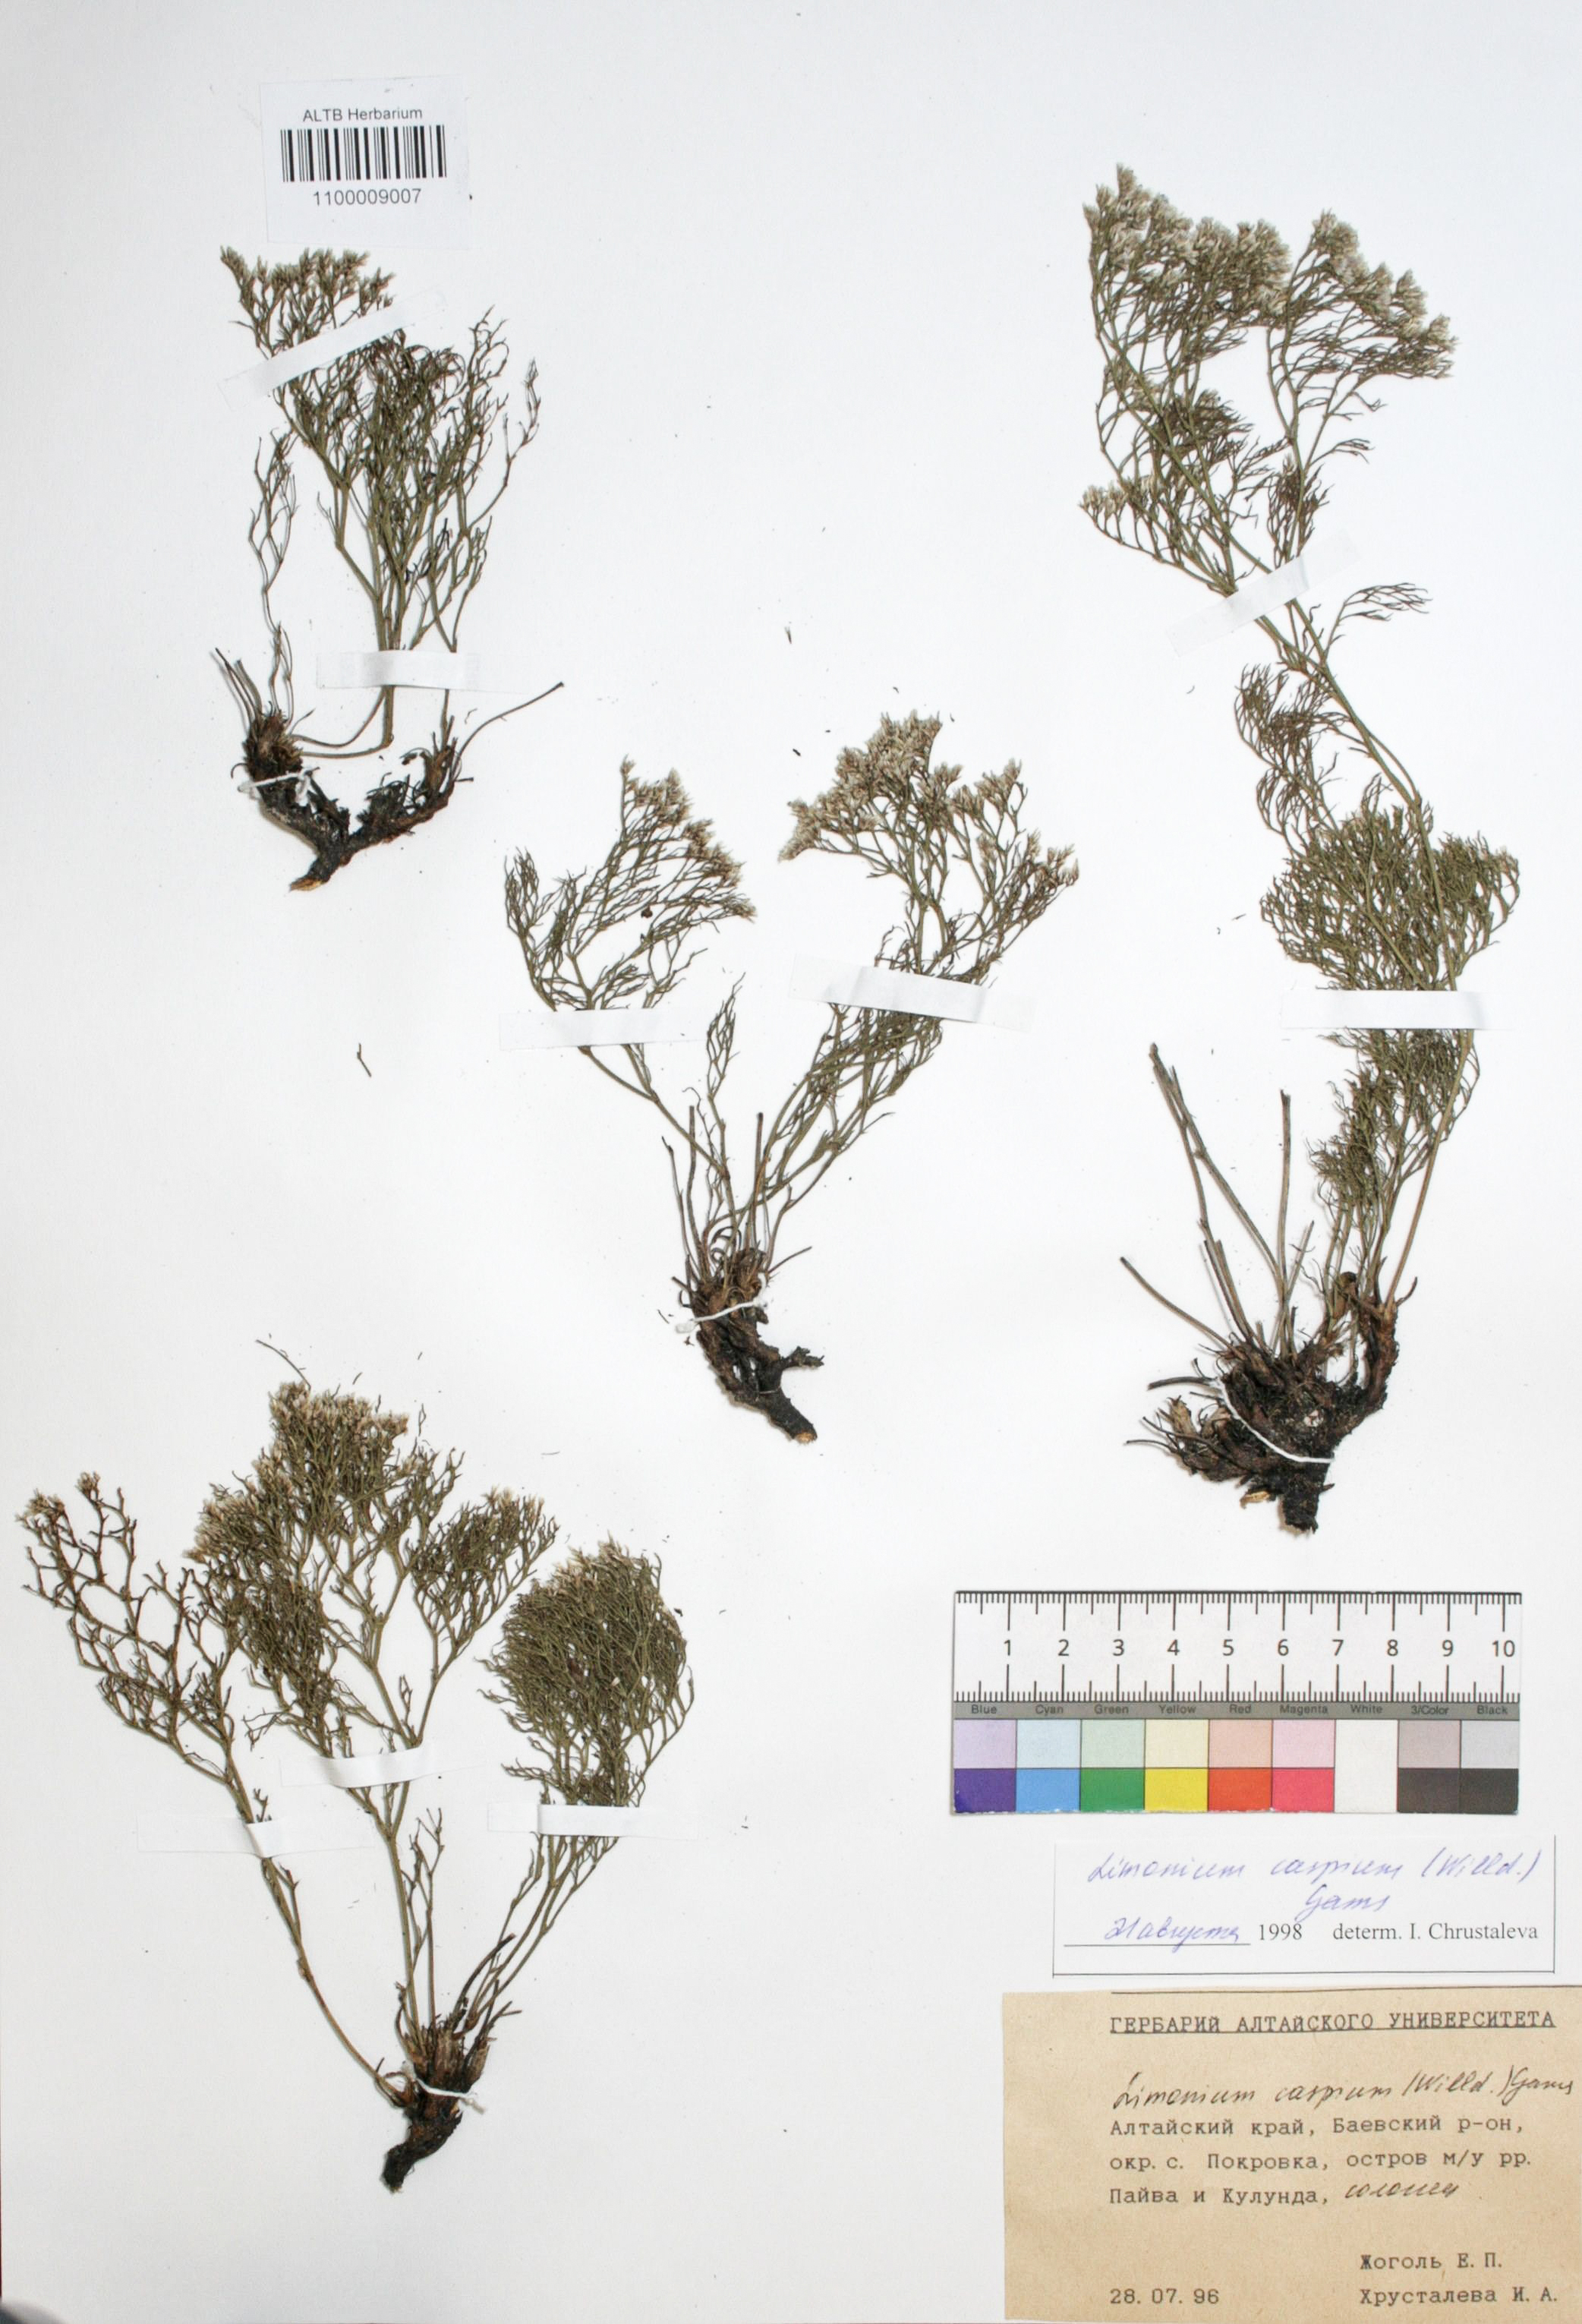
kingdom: Plantae
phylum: Tracheophyta
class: Magnoliopsida
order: Caryophyllales
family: Plumbaginaceae
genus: Limonium
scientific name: Limonium bellidifolium
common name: Matted sea-lavender
